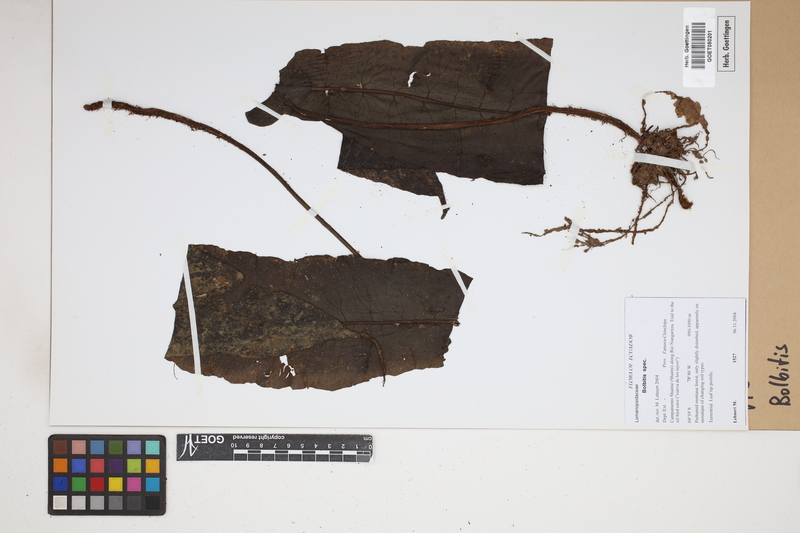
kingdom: Plantae
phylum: Tracheophyta
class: Polypodiopsida
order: Polypodiales
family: Dryopteridaceae
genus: Bolbitis
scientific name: Bolbitis
